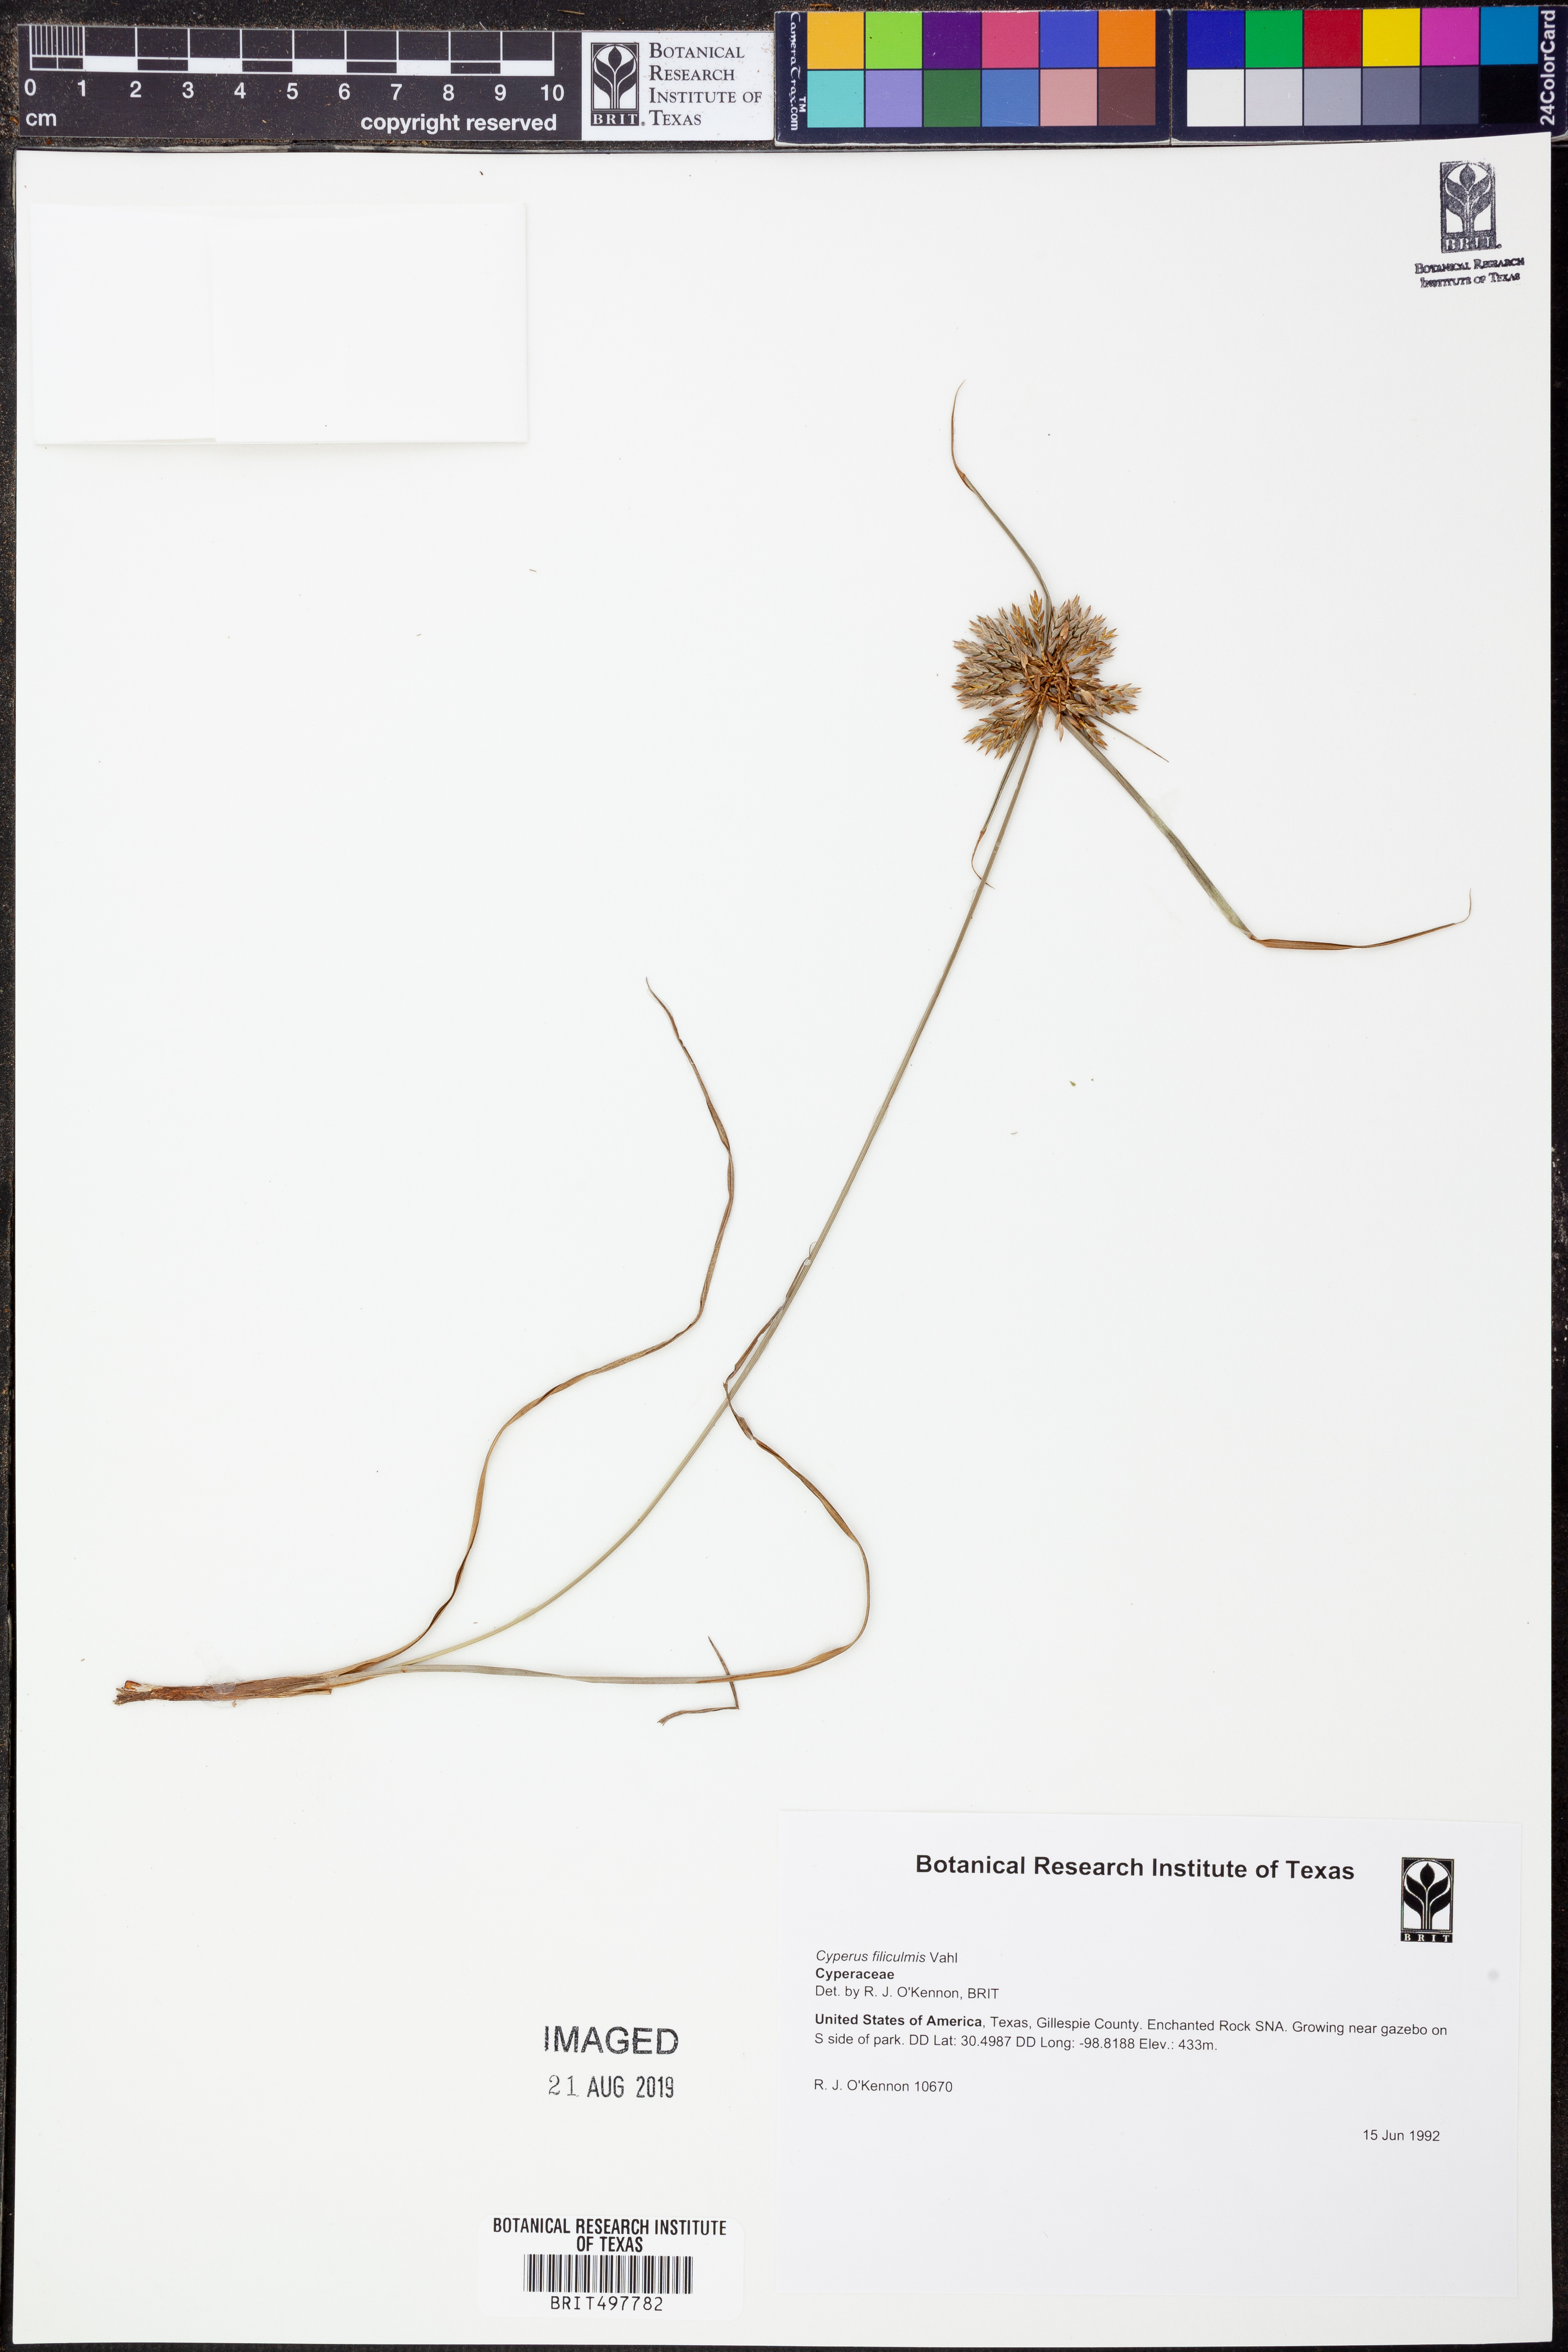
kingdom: Plantae
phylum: Tracheophyta
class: Liliopsida
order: Poales
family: Cyperaceae
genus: Cyperus
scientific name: Cyperus lanceolatus
